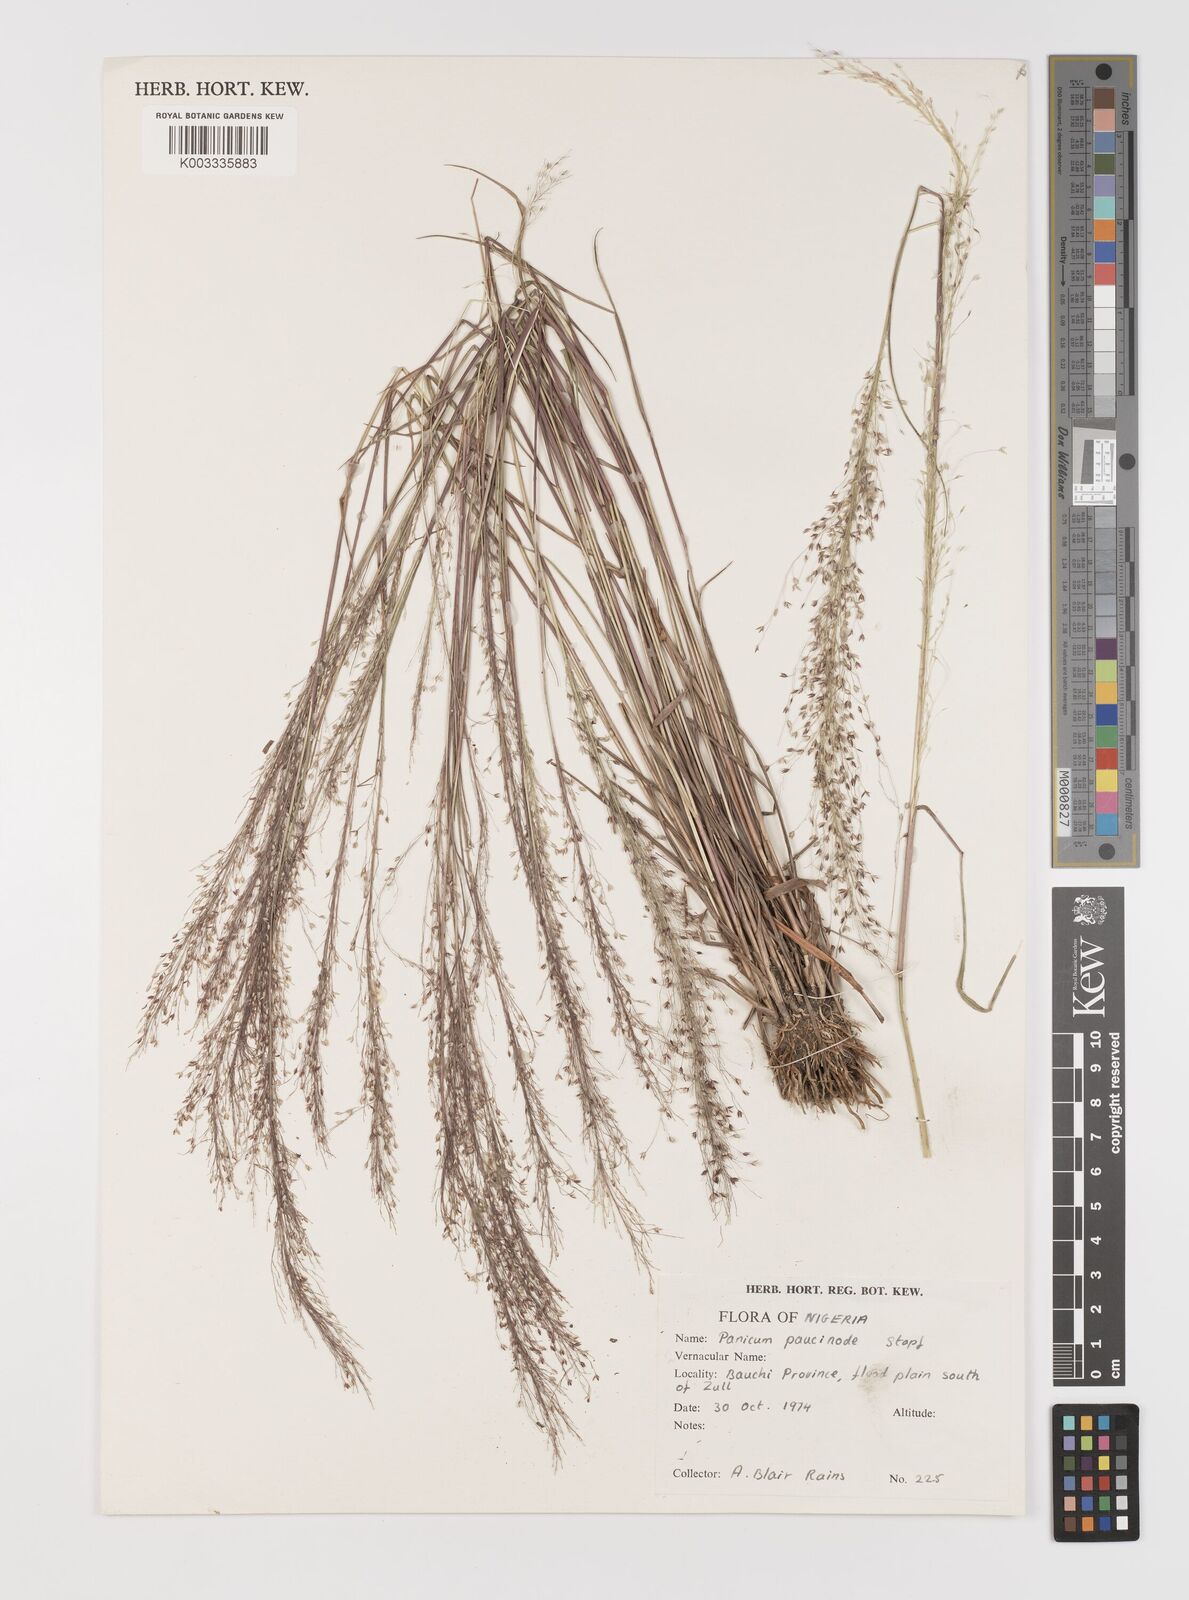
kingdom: Plantae
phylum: Tracheophyta
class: Liliopsida
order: Poales
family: Poaceae
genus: Panicum
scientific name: Panicum paucinode
